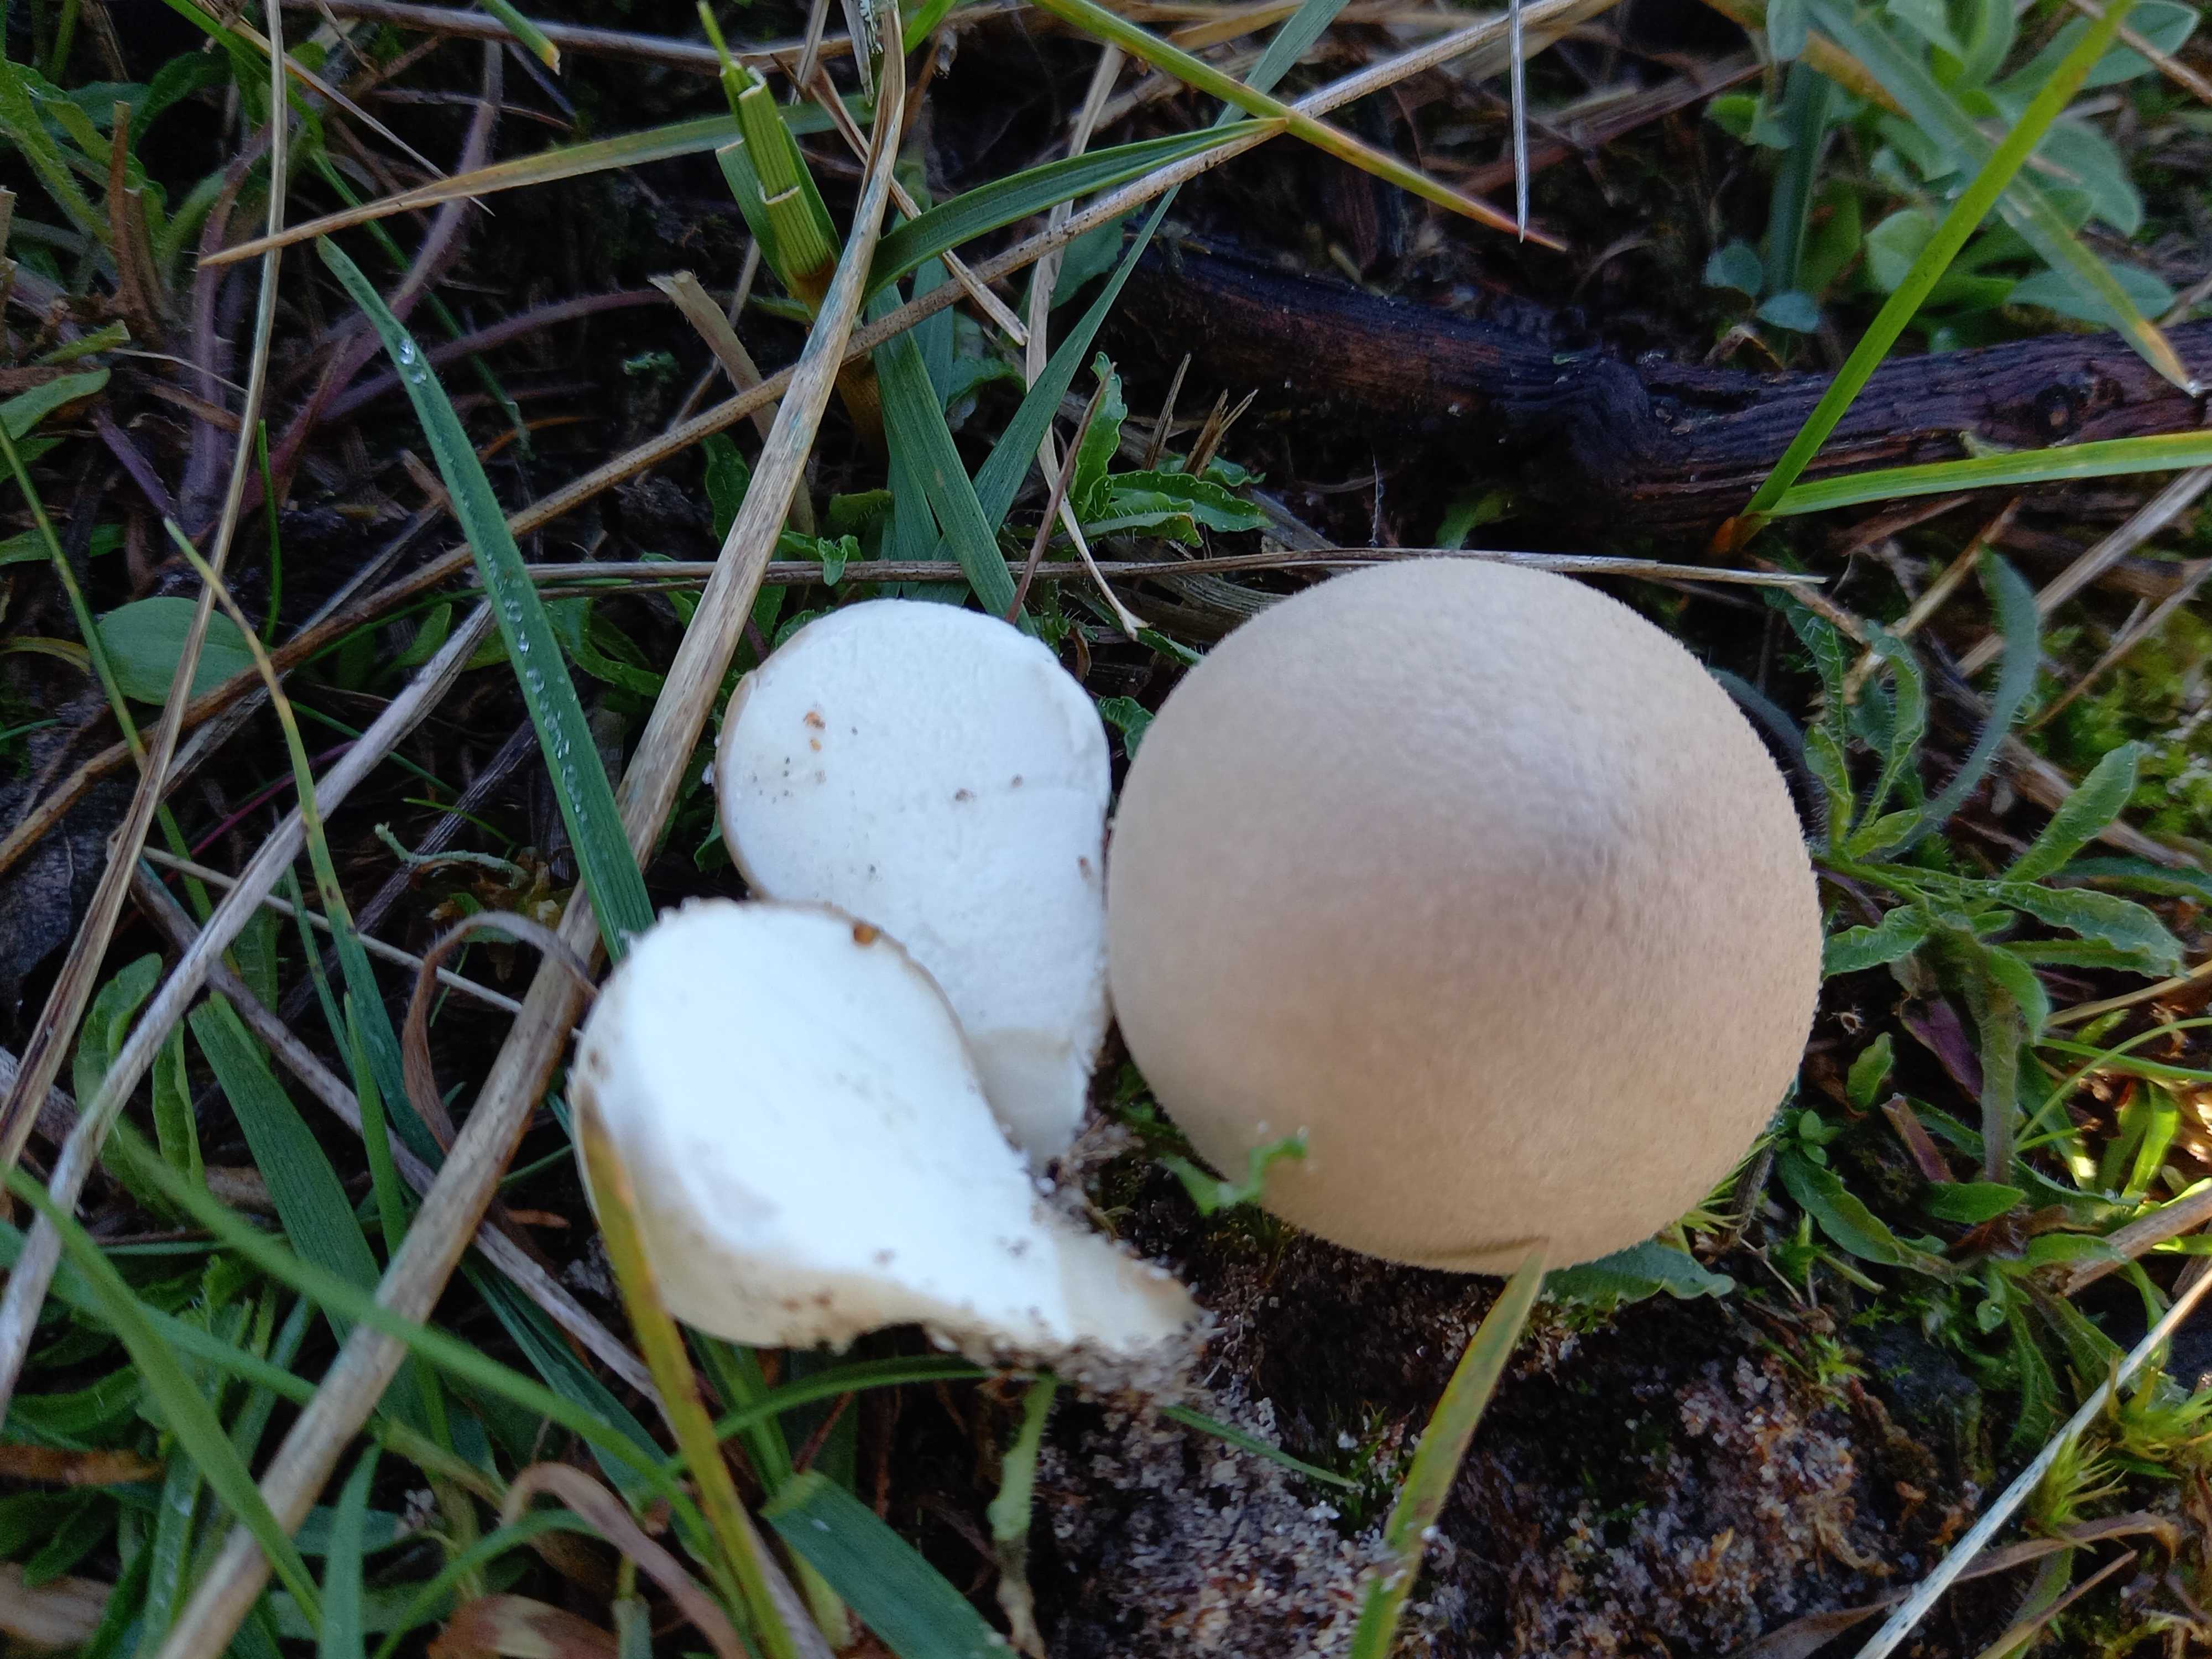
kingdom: Fungi
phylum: Basidiomycota
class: Agaricomycetes
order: Agaricales
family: Lycoperdaceae
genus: Lycoperdon
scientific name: Lycoperdon lividum
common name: mark-støvbold
